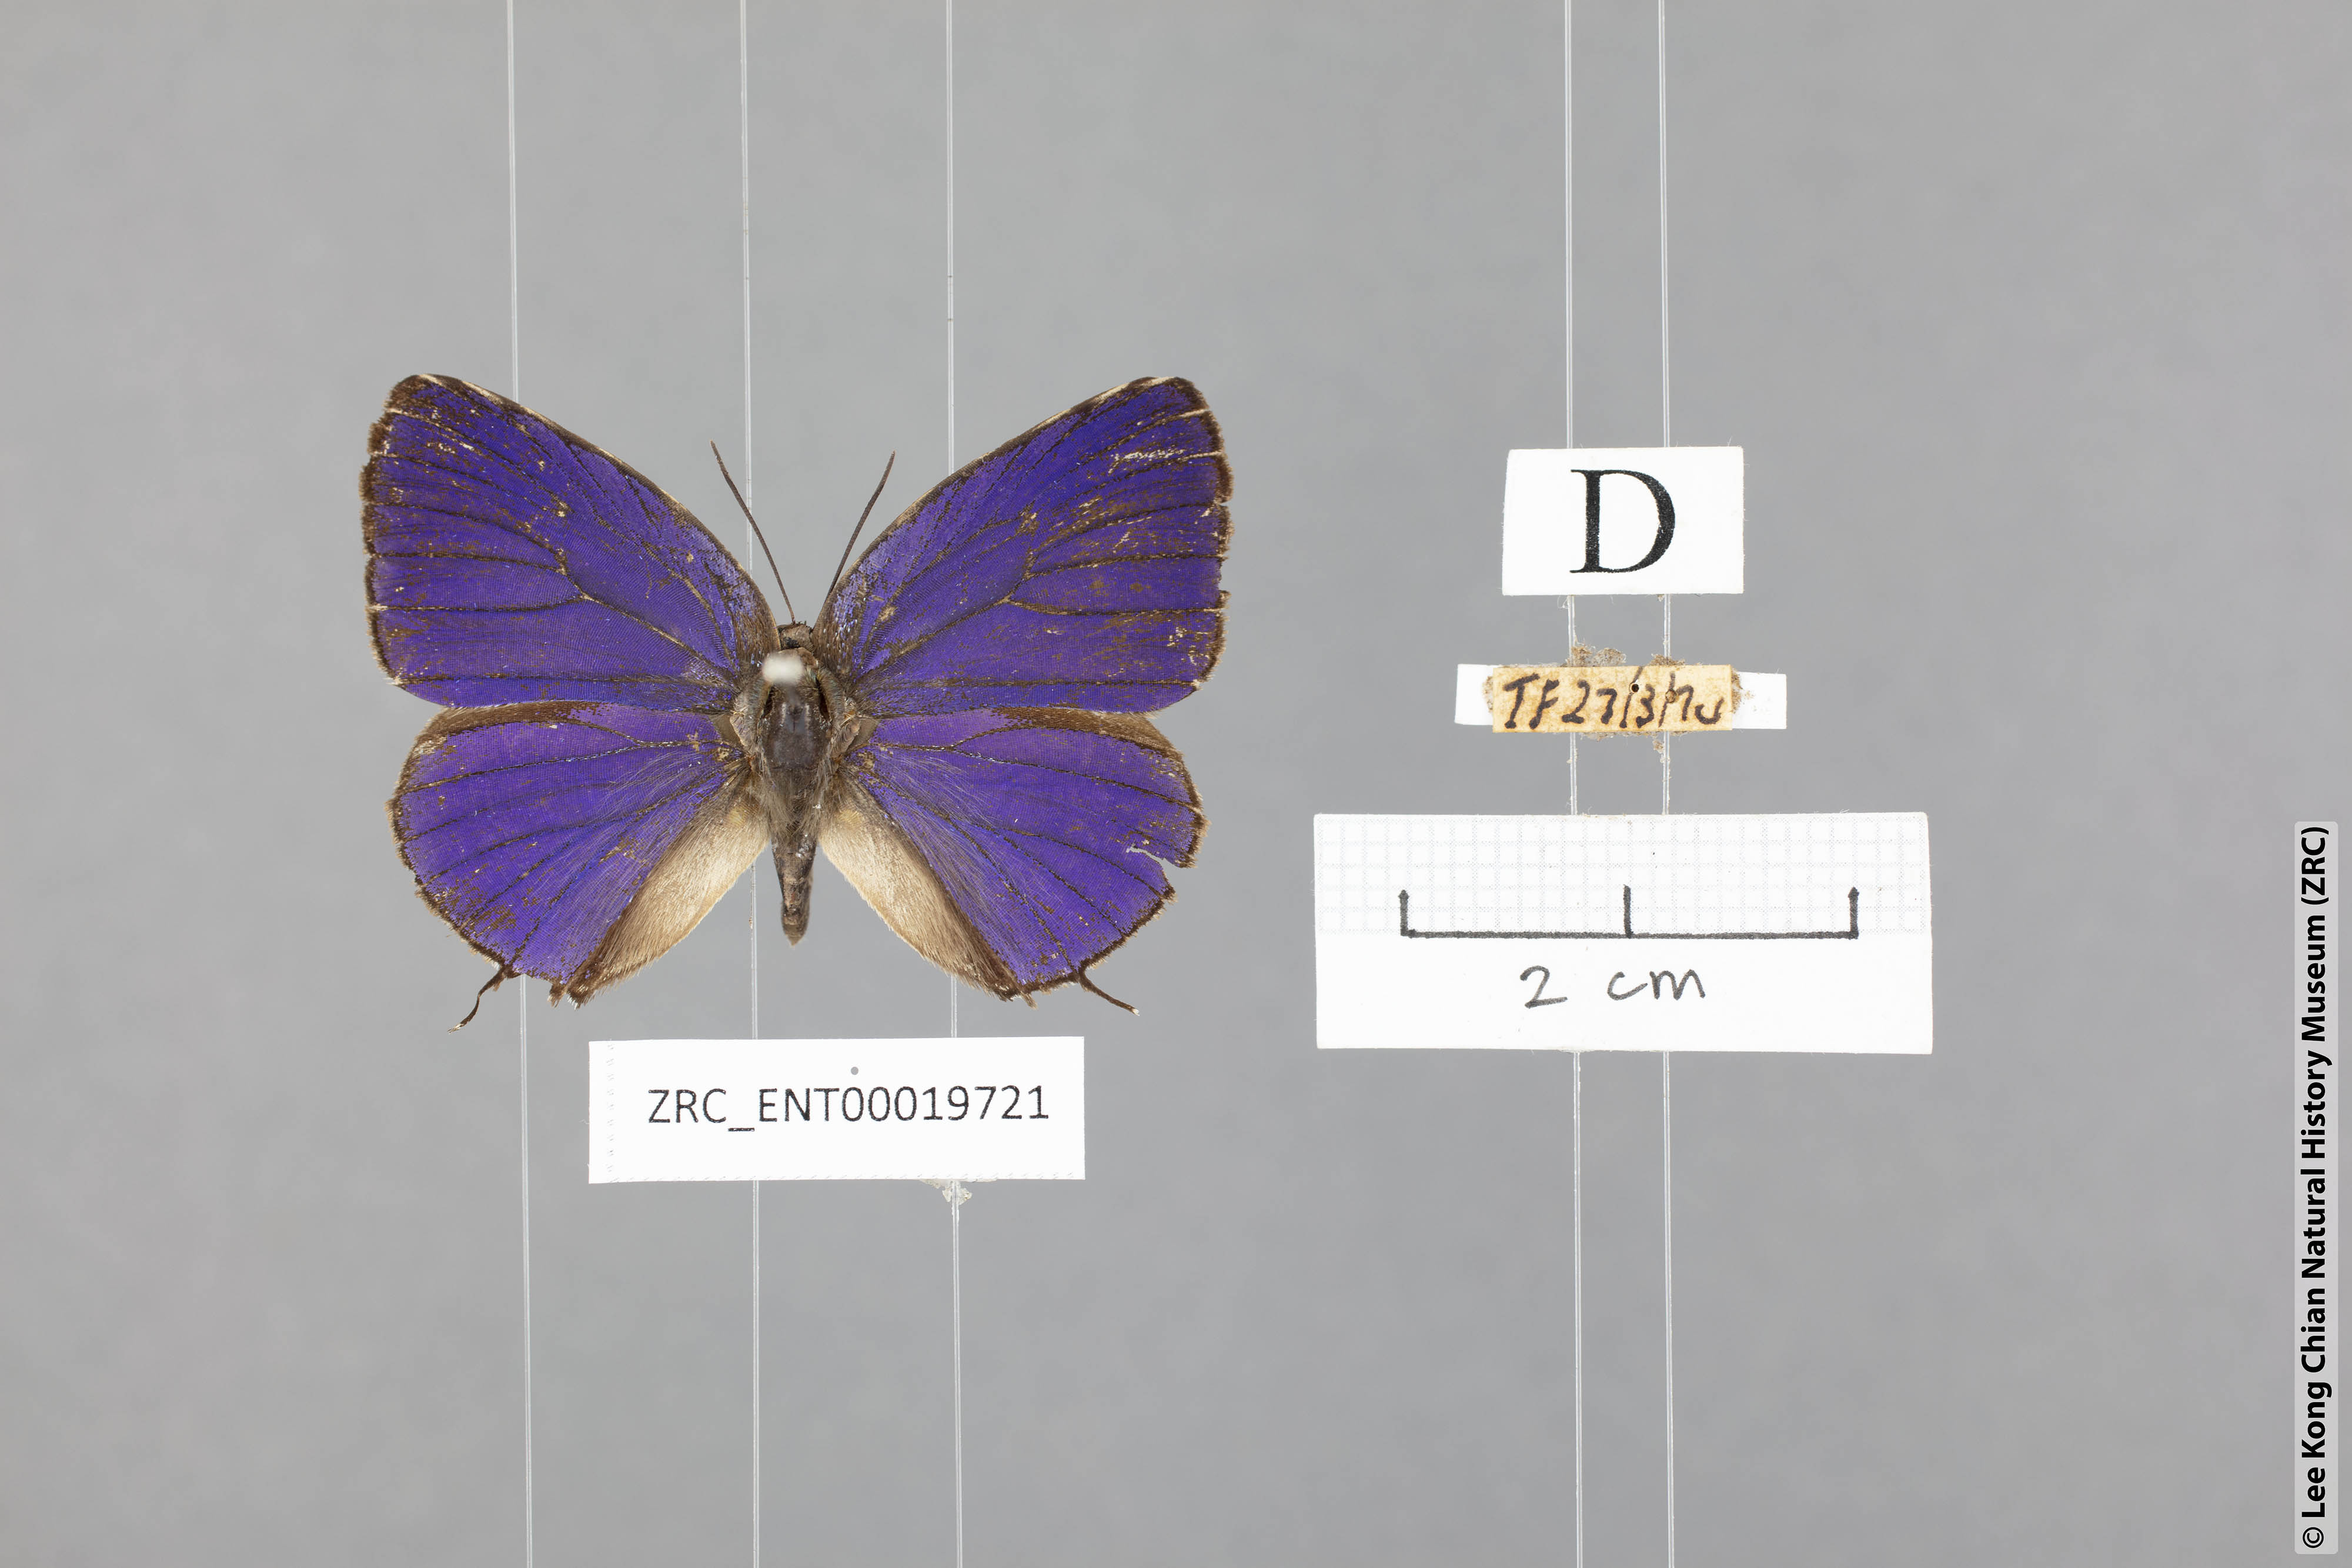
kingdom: Animalia
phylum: Arthropoda
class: Insecta
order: Lepidoptera
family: Lycaenidae
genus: Arhopala
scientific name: Arhopala myrzala
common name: Malayan oakblue
